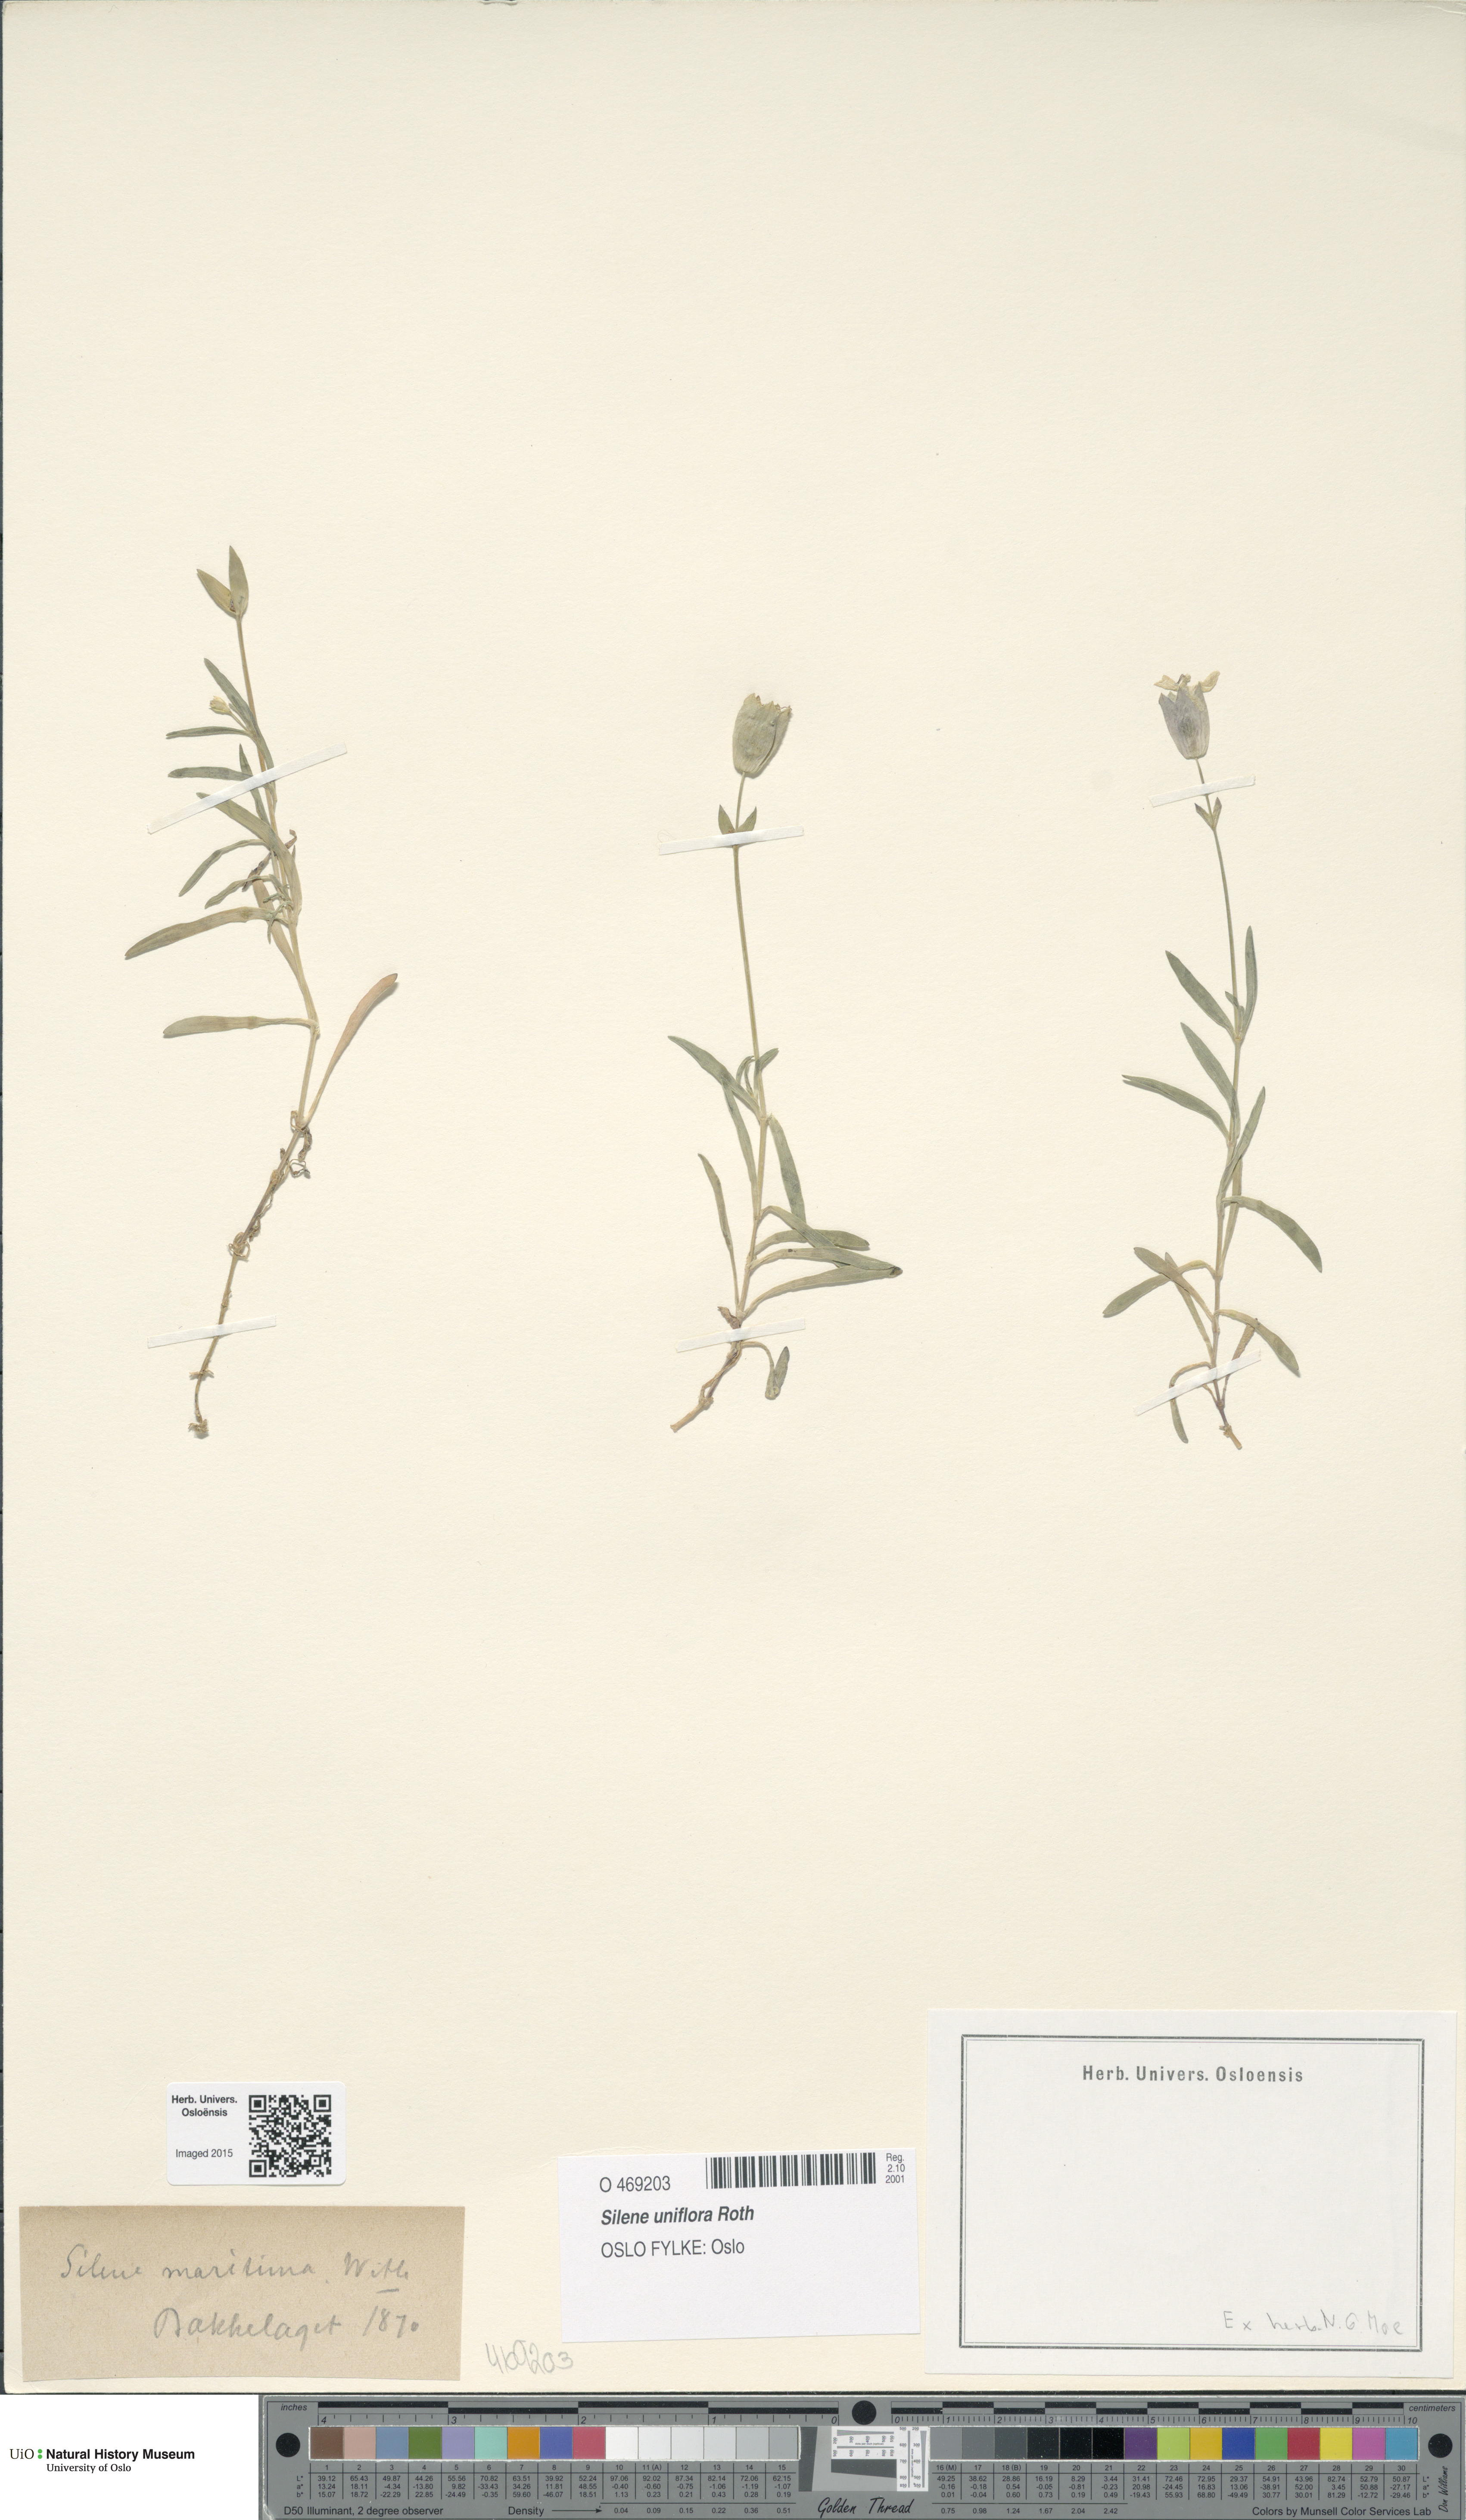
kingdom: Plantae
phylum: Tracheophyta
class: Magnoliopsida
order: Caryophyllales
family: Caryophyllaceae
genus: Silene
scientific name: Silene uniflora
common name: Sea campion
